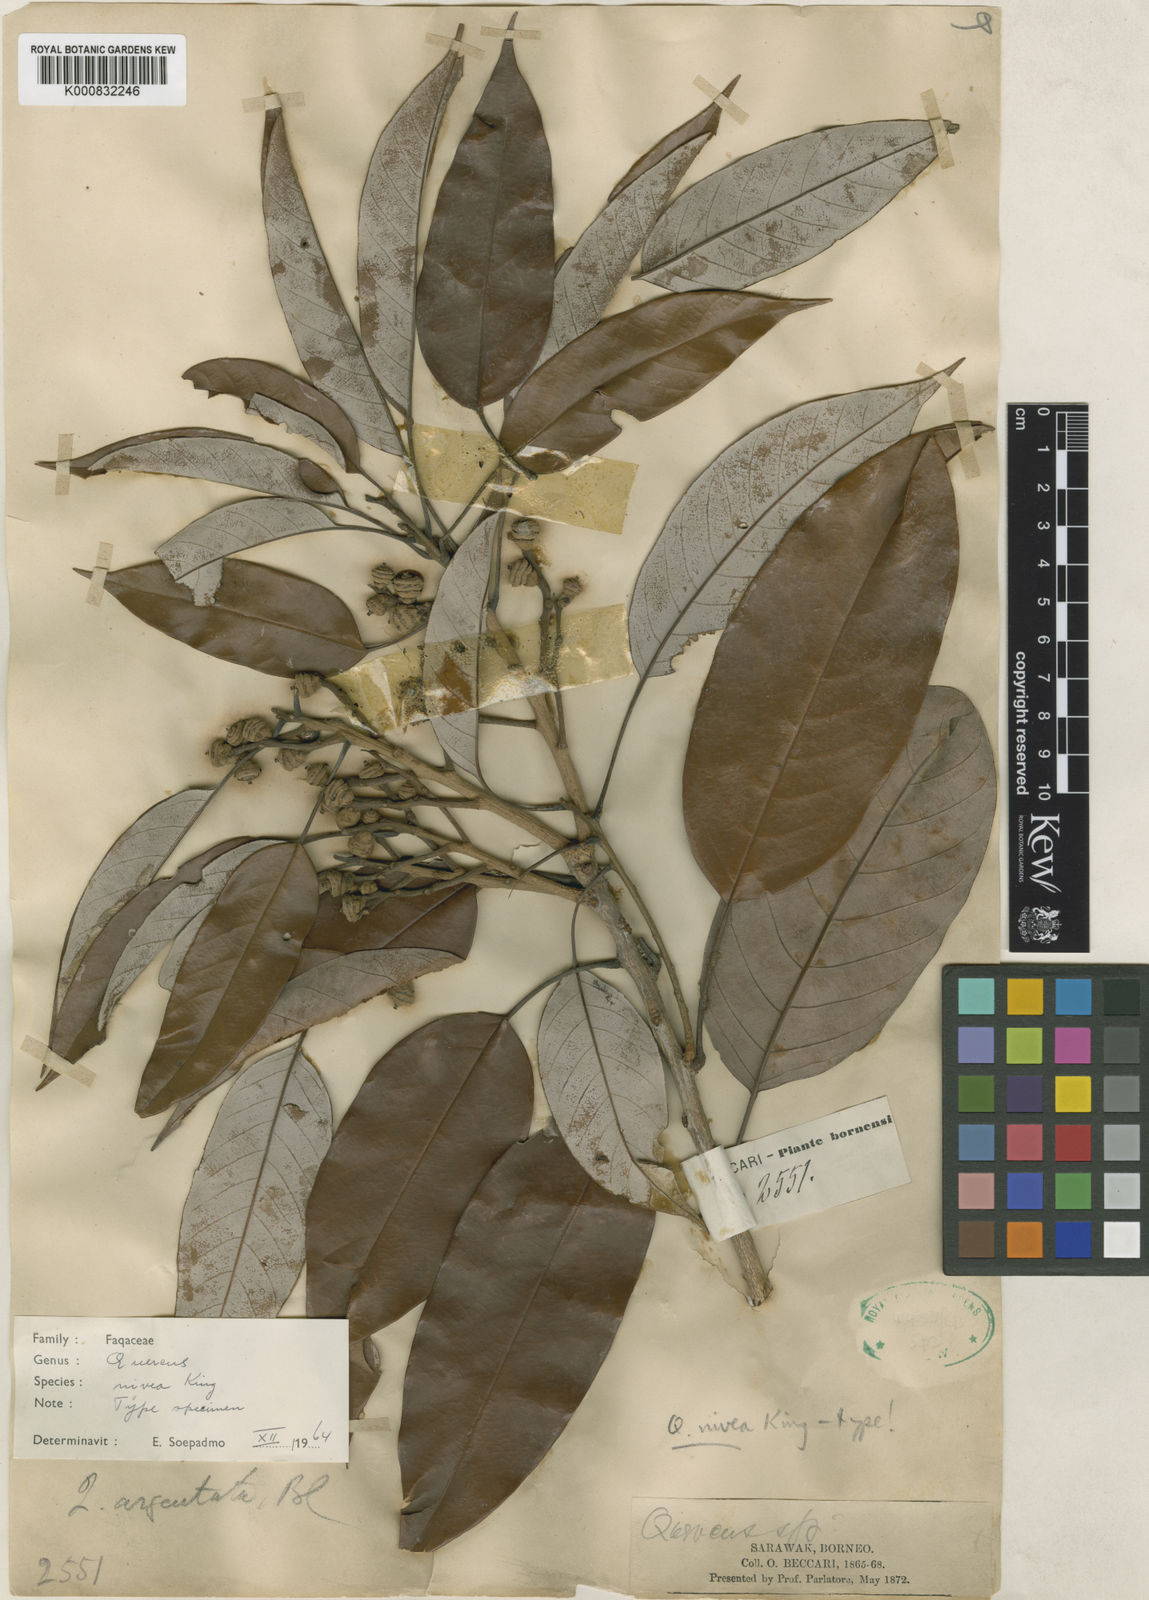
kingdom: Plantae
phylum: Tracheophyta
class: Magnoliopsida
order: Fagales
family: Fagaceae
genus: Quercus
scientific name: Quercus nivea
